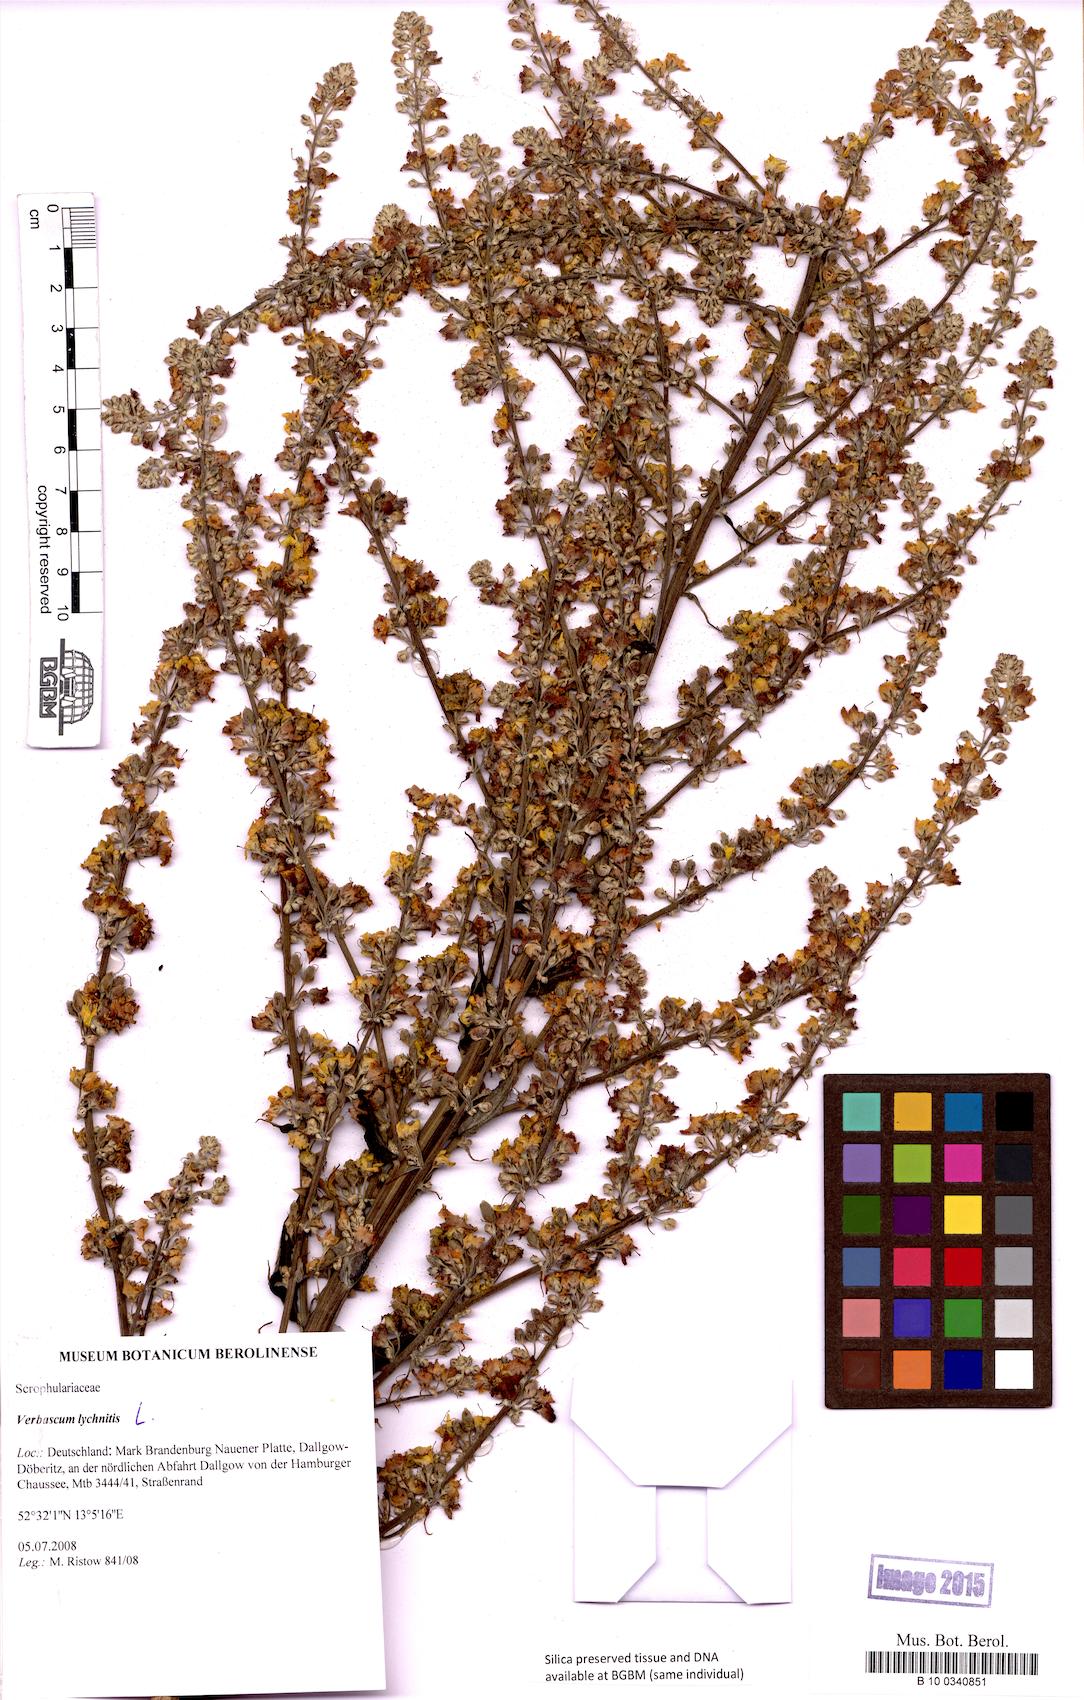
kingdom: Plantae
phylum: Tracheophyta
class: Magnoliopsida
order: Lamiales
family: Scrophulariaceae
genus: Verbascum
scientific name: Verbascum lychnitis
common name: White mullein
